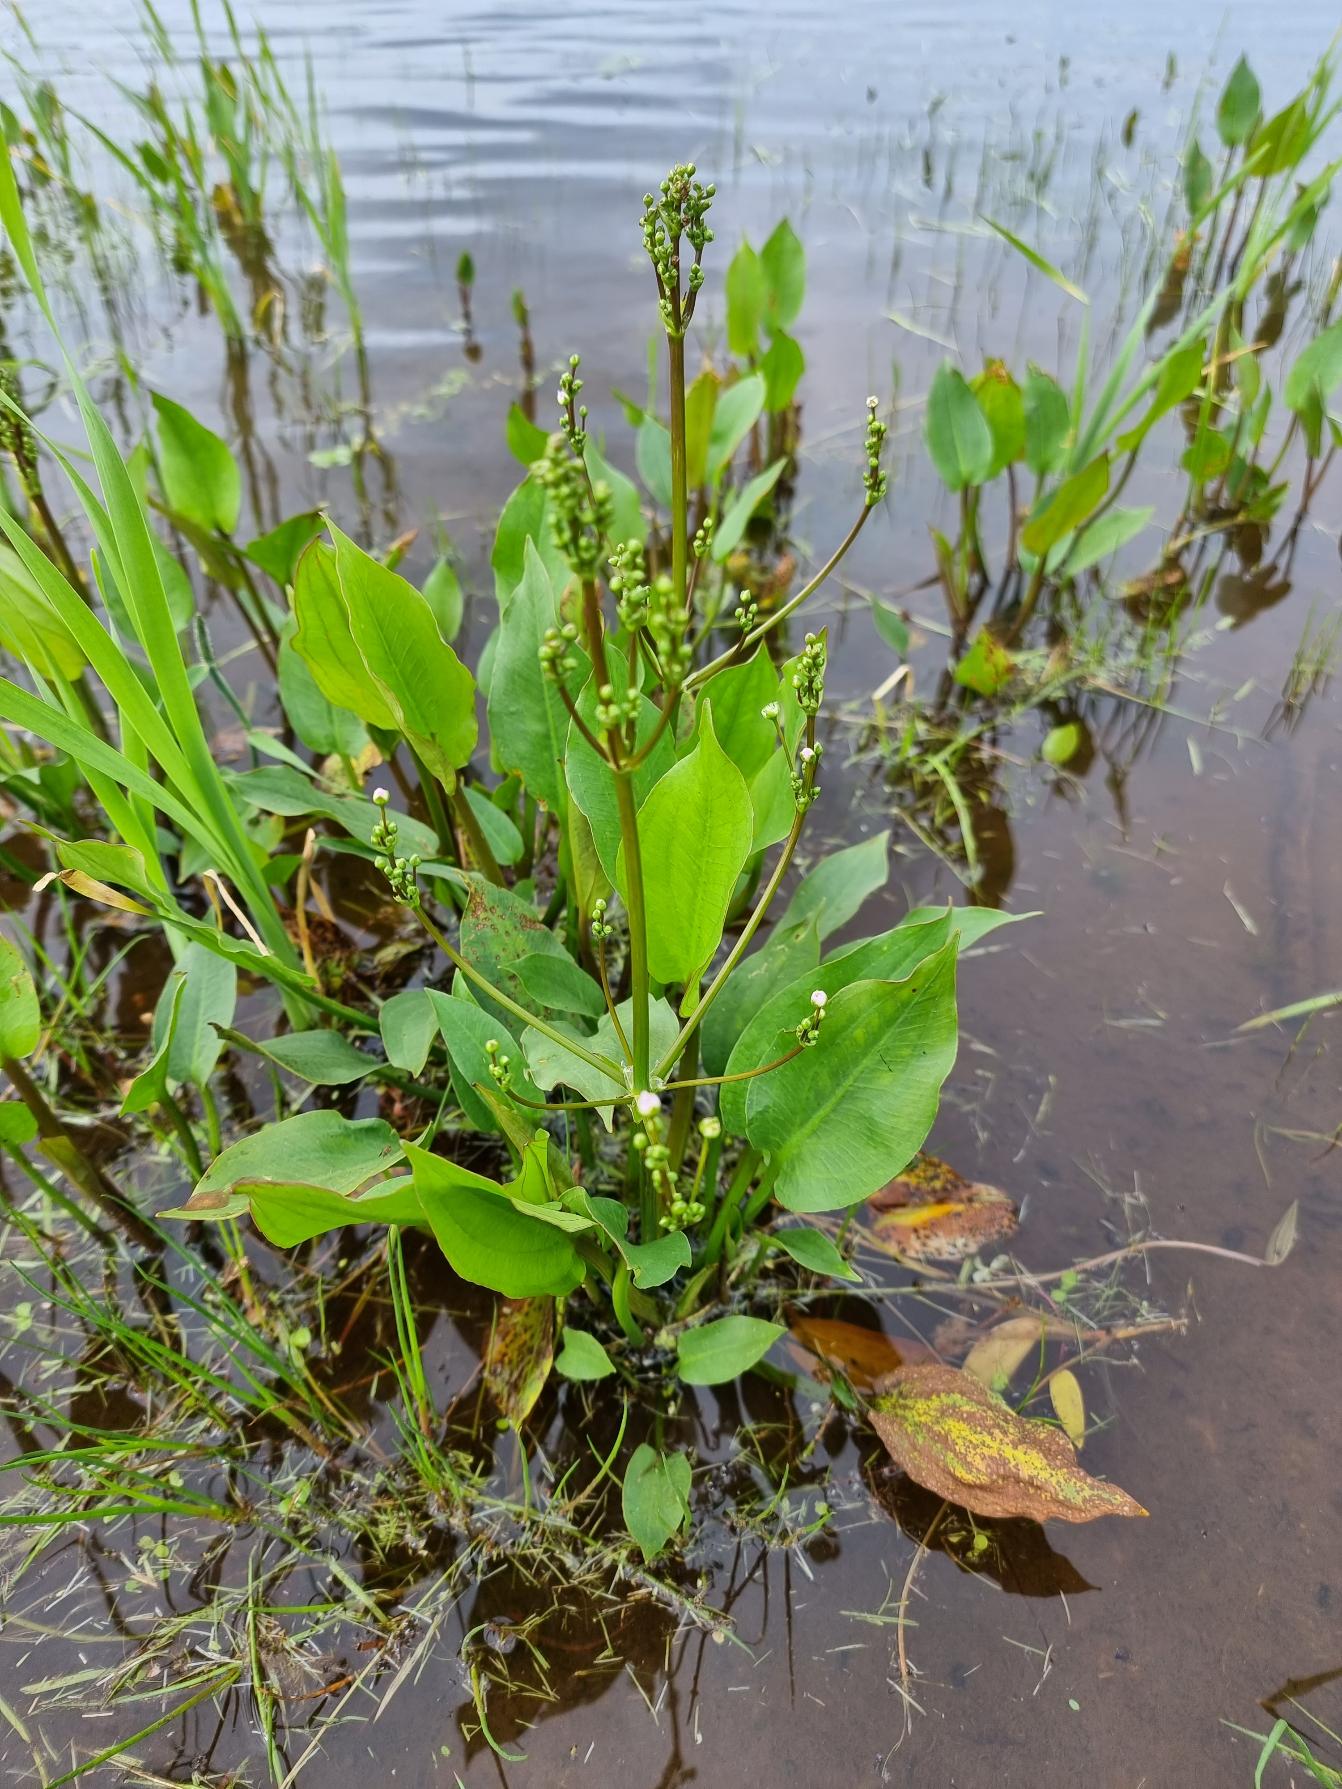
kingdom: Plantae
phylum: Tracheophyta
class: Liliopsida
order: Alismatales
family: Alismataceae
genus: Alisma
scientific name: Alisma plantago-aquatica
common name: Vejbred-skeblad
